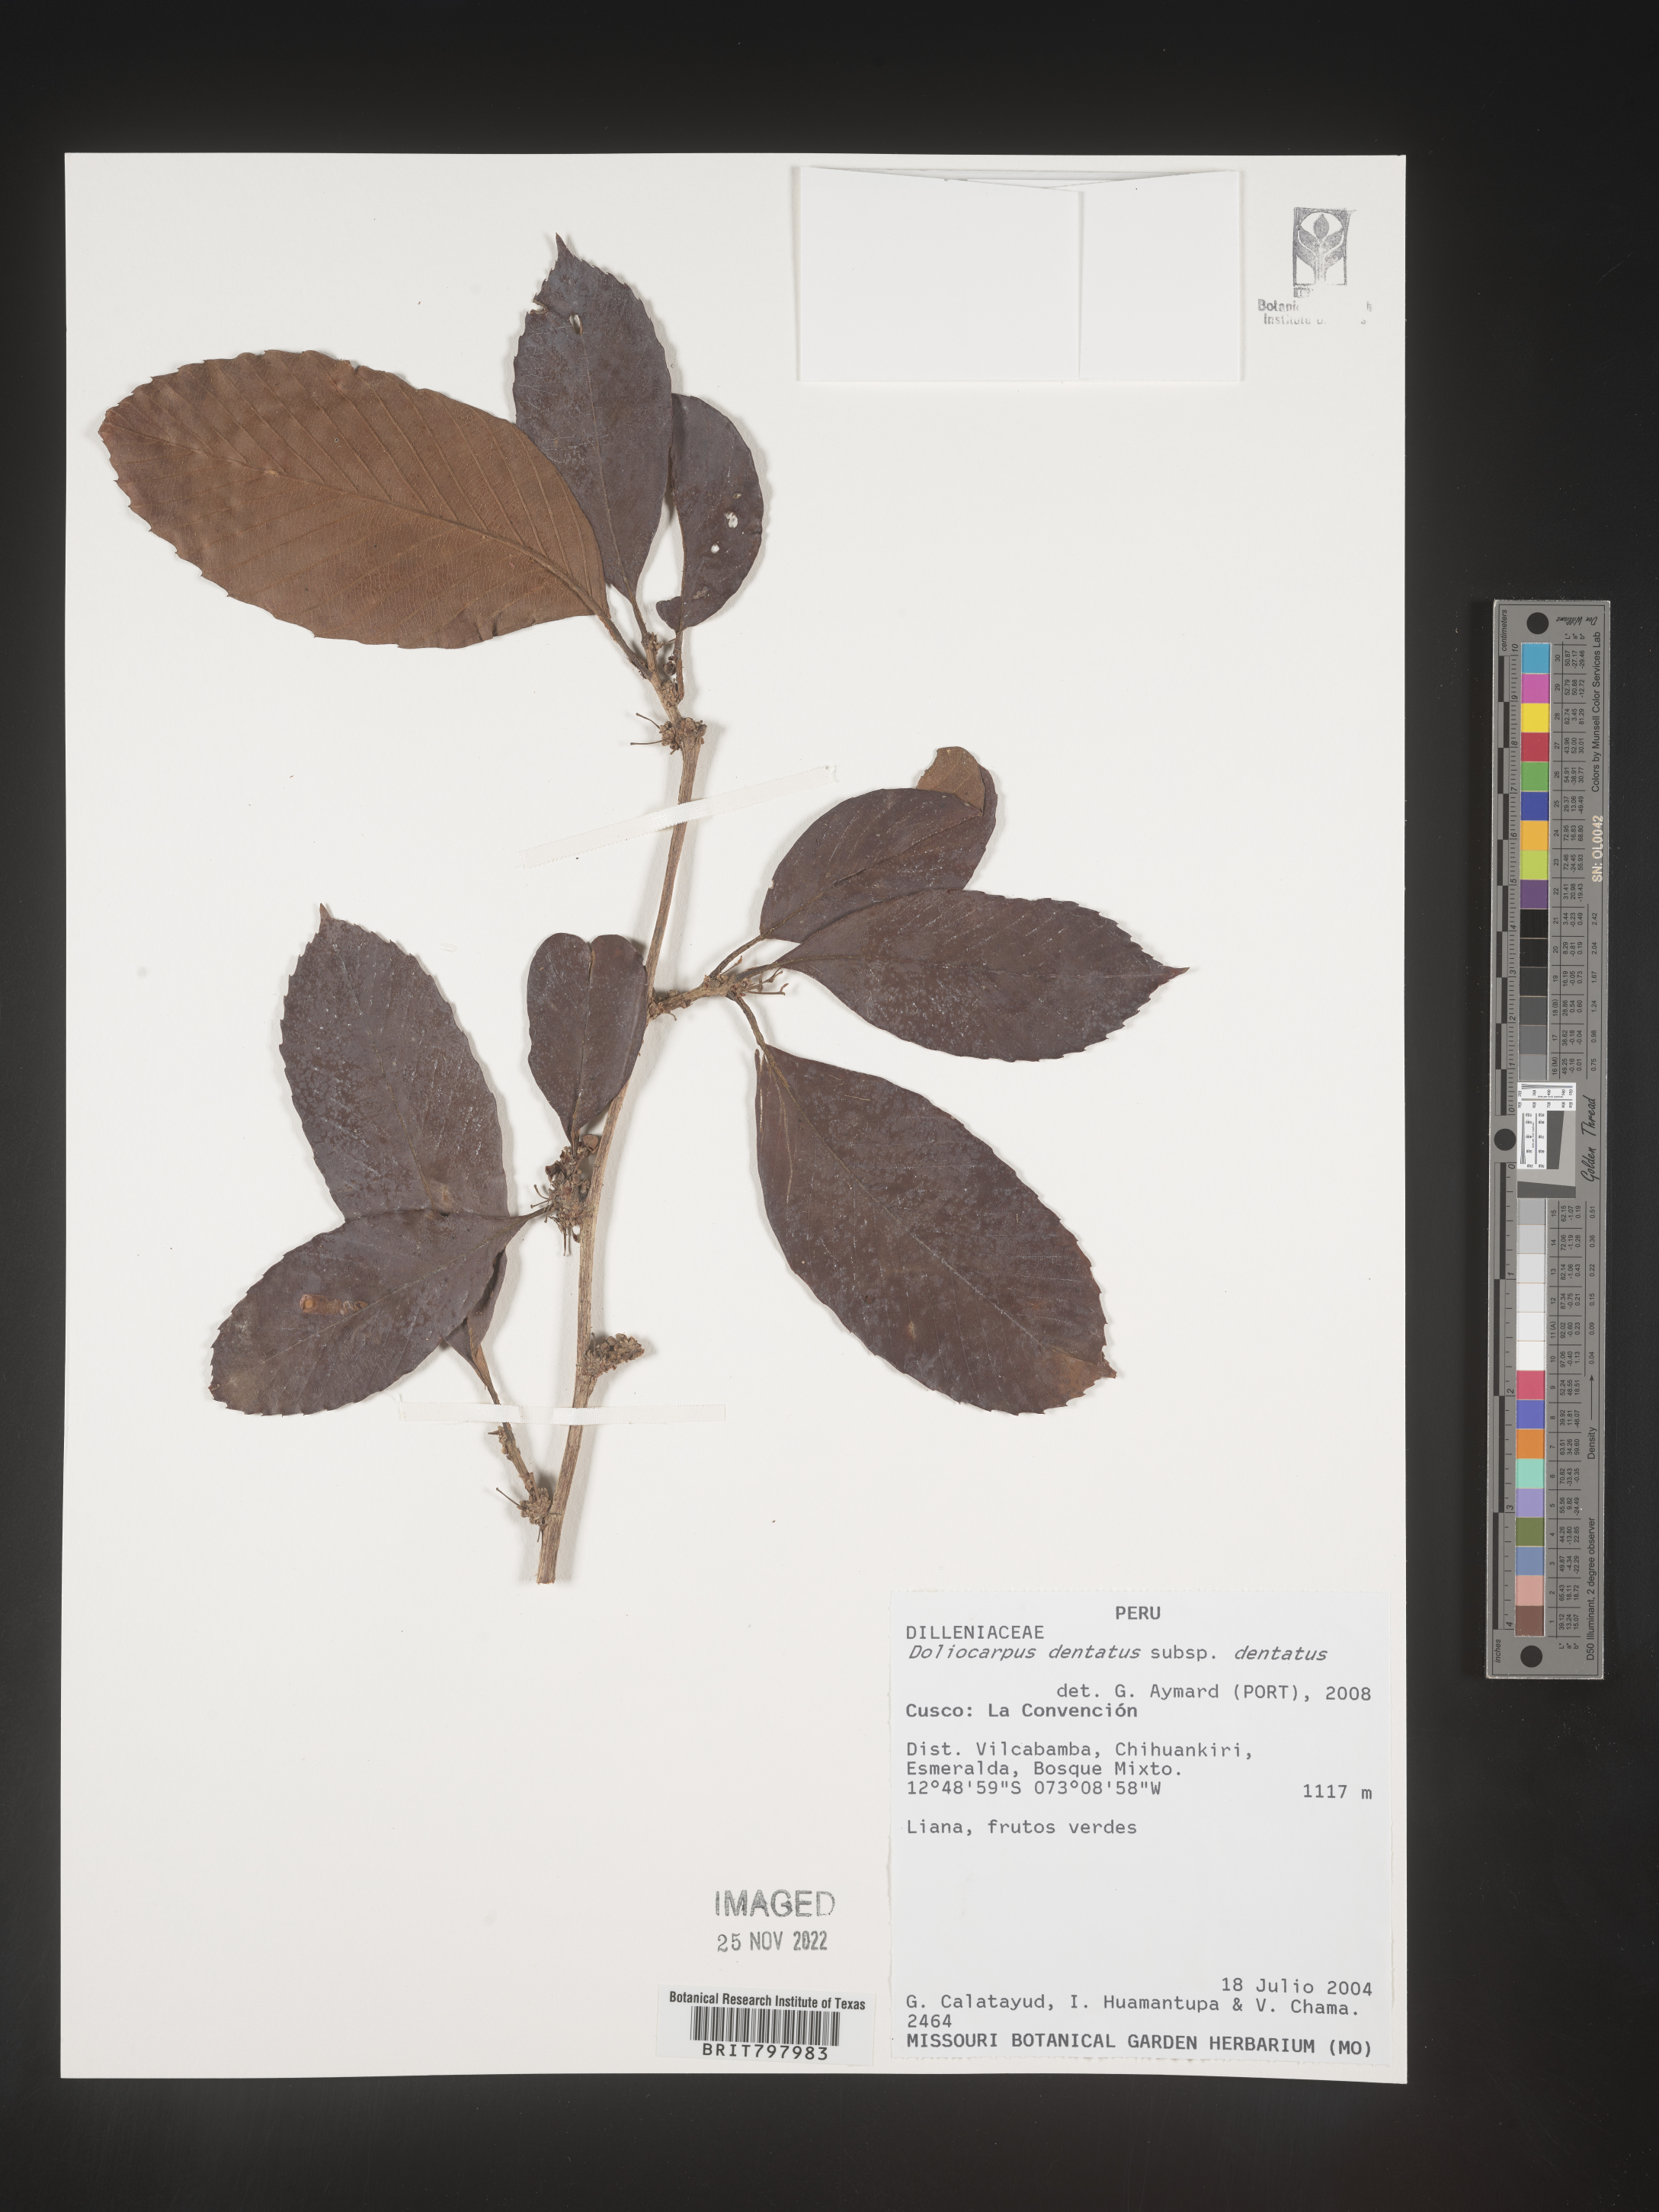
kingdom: Plantae
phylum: Tracheophyta
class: Magnoliopsida
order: Dilleniales
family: Dilleniaceae
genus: Doliocarpus
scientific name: Doliocarpus
